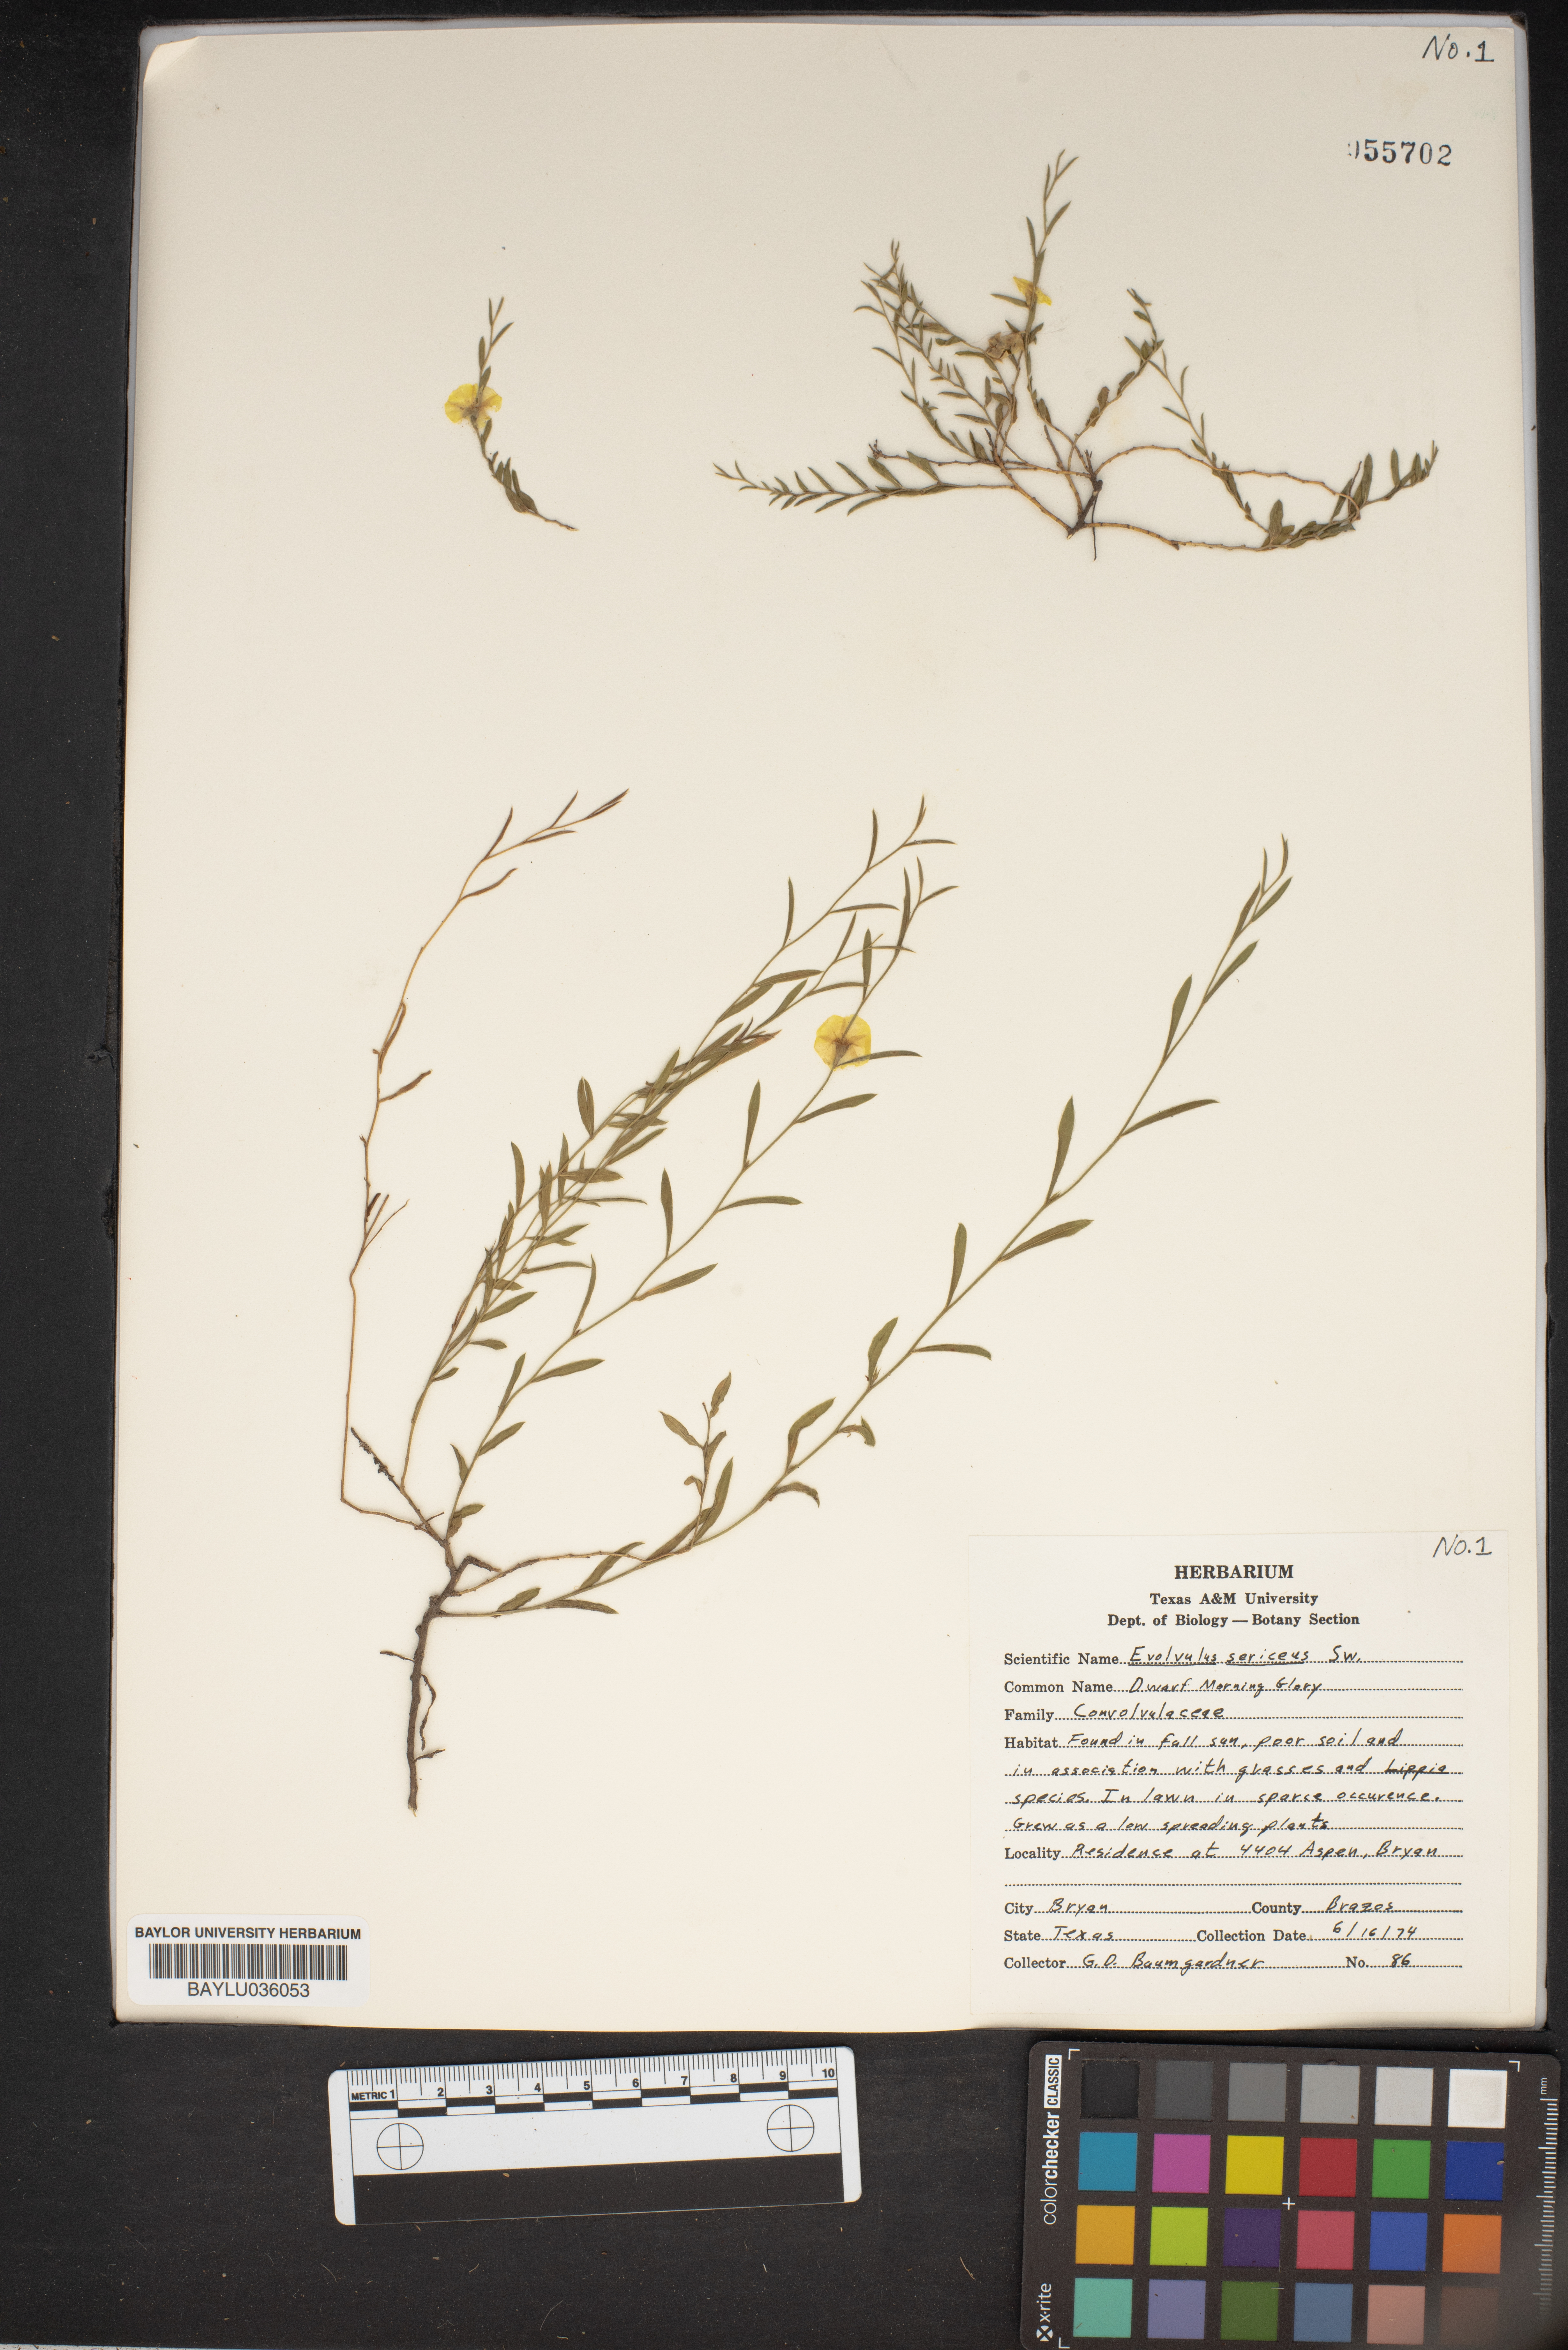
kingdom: Plantae
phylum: Tracheophyta
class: Magnoliopsida
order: Solanales
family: Convolvulaceae
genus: Evolvulus
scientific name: Evolvulus sericeus
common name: Blue dots
